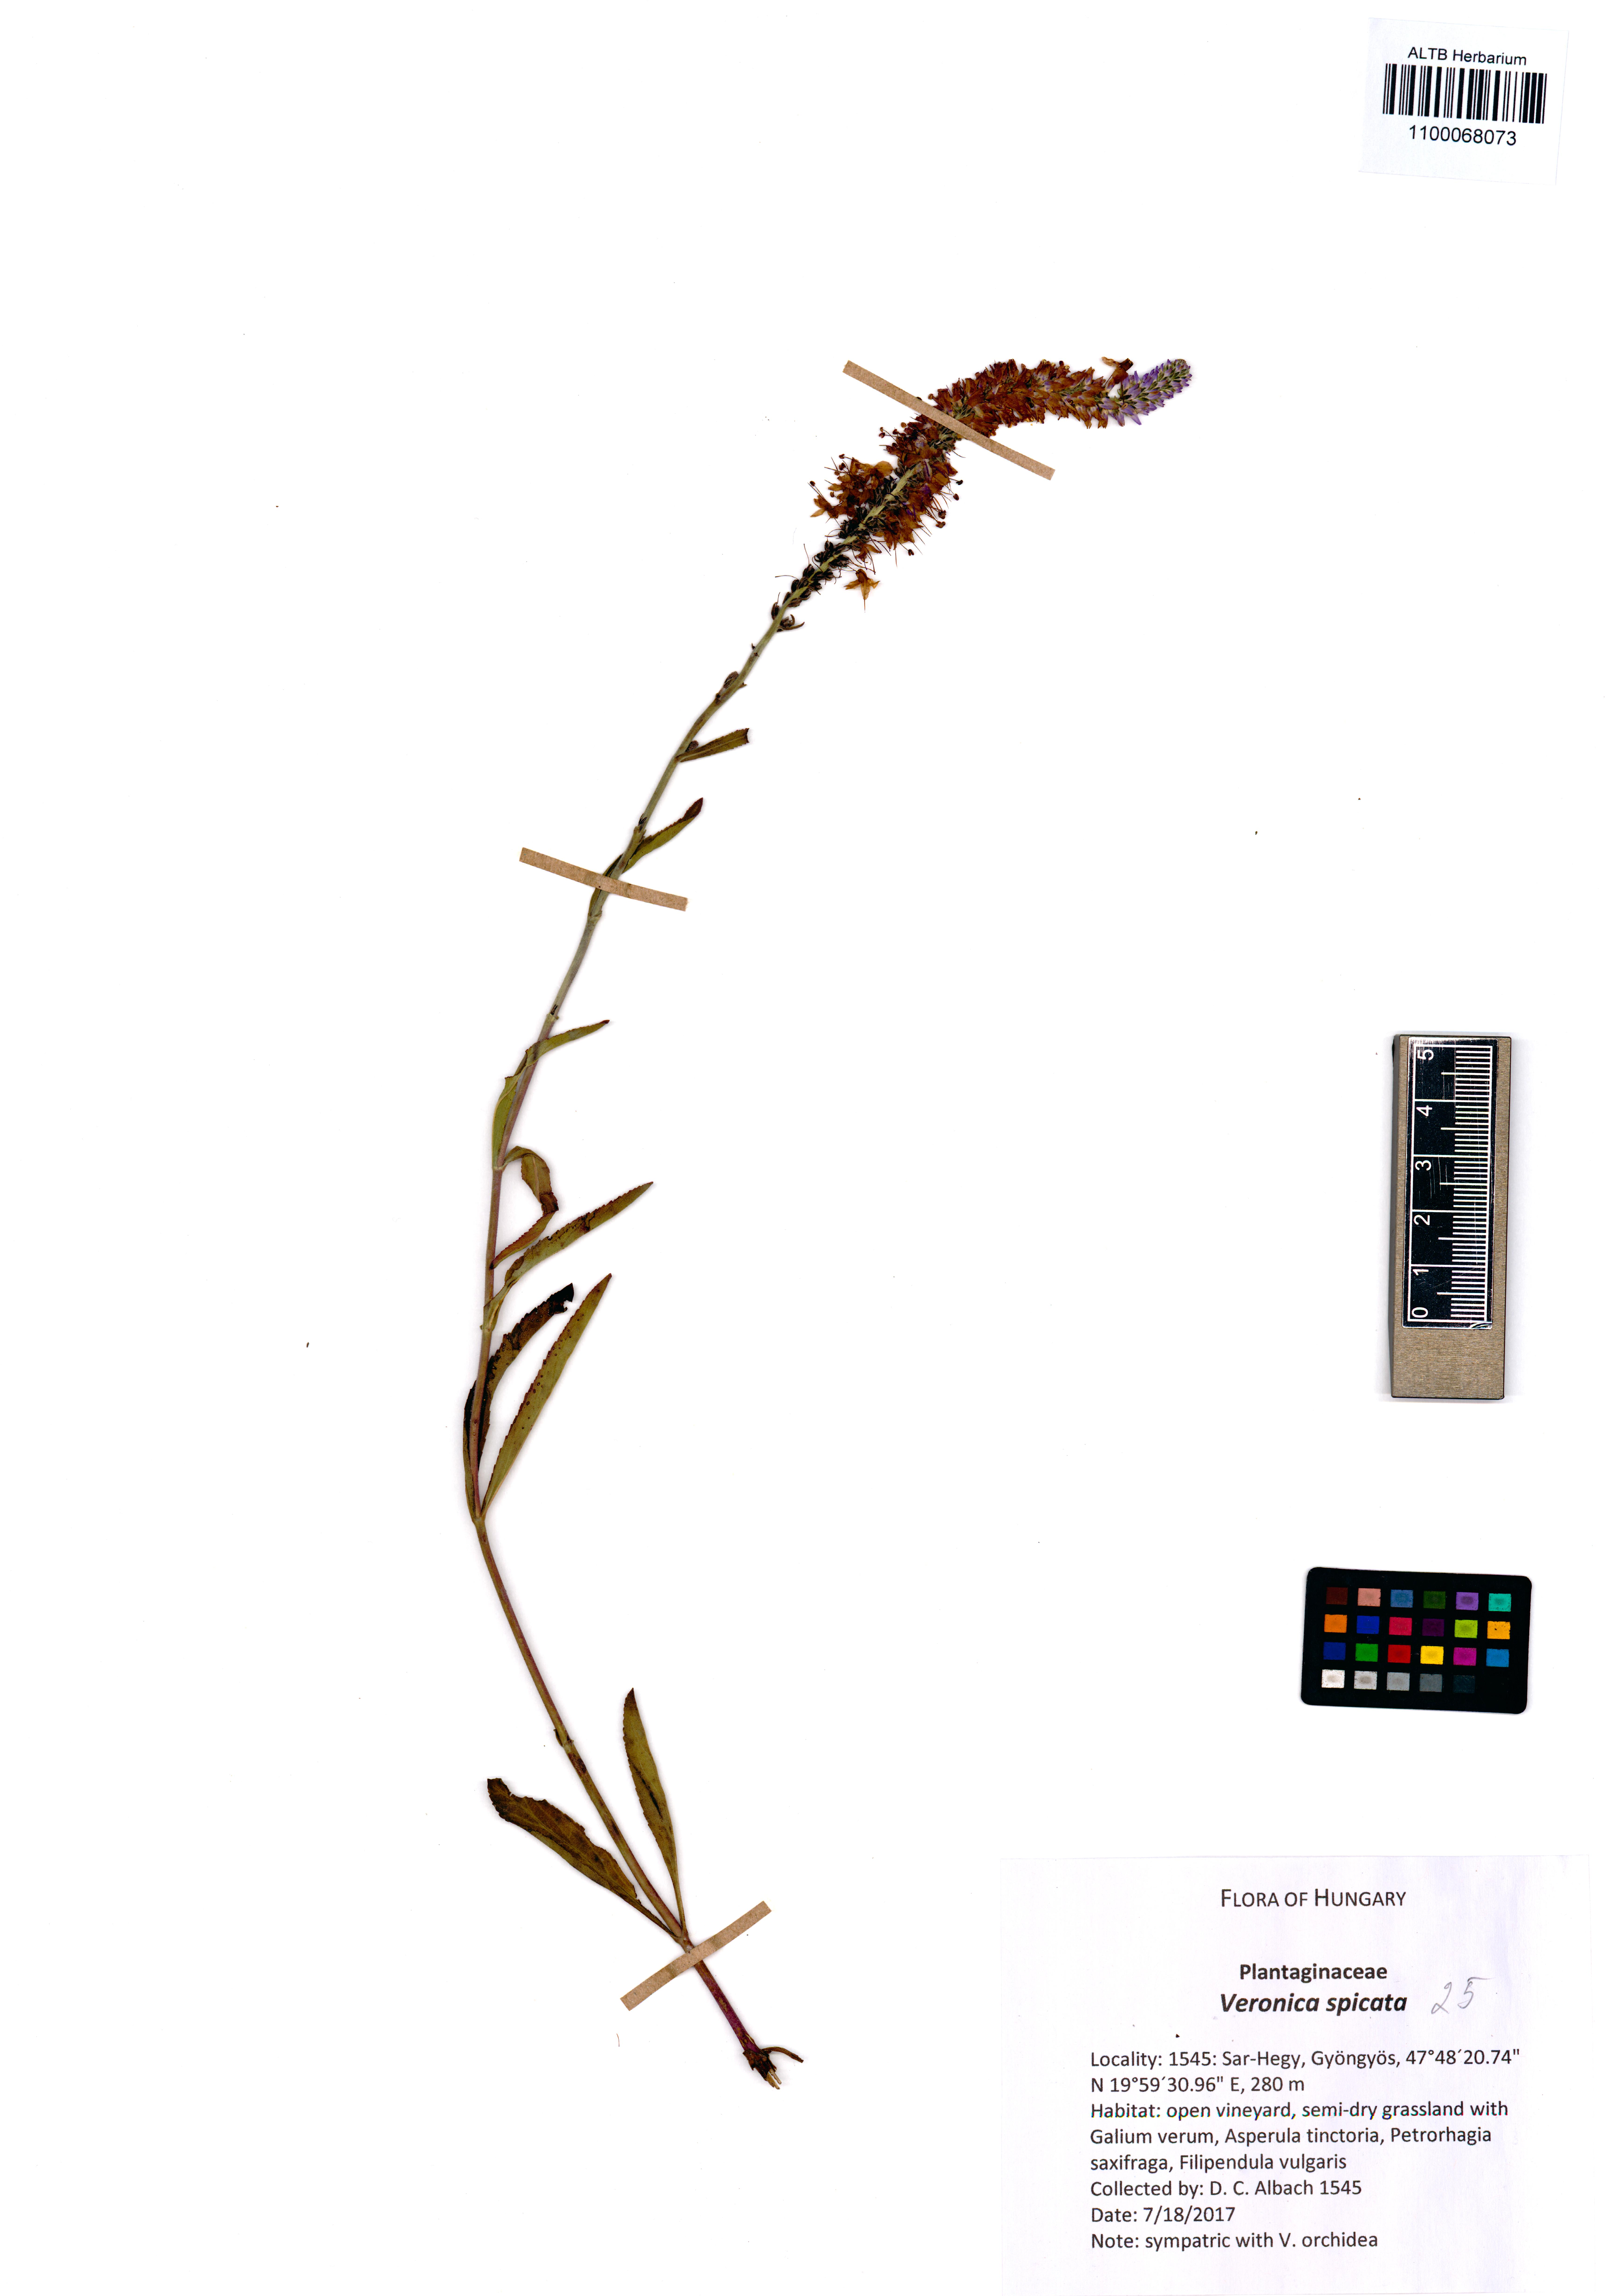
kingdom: Plantae
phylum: Tracheophyta
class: Magnoliopsida
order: Lamiales
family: Plantaginaceae
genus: Veronica
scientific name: Veronica spicata
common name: Spiked speedwell
